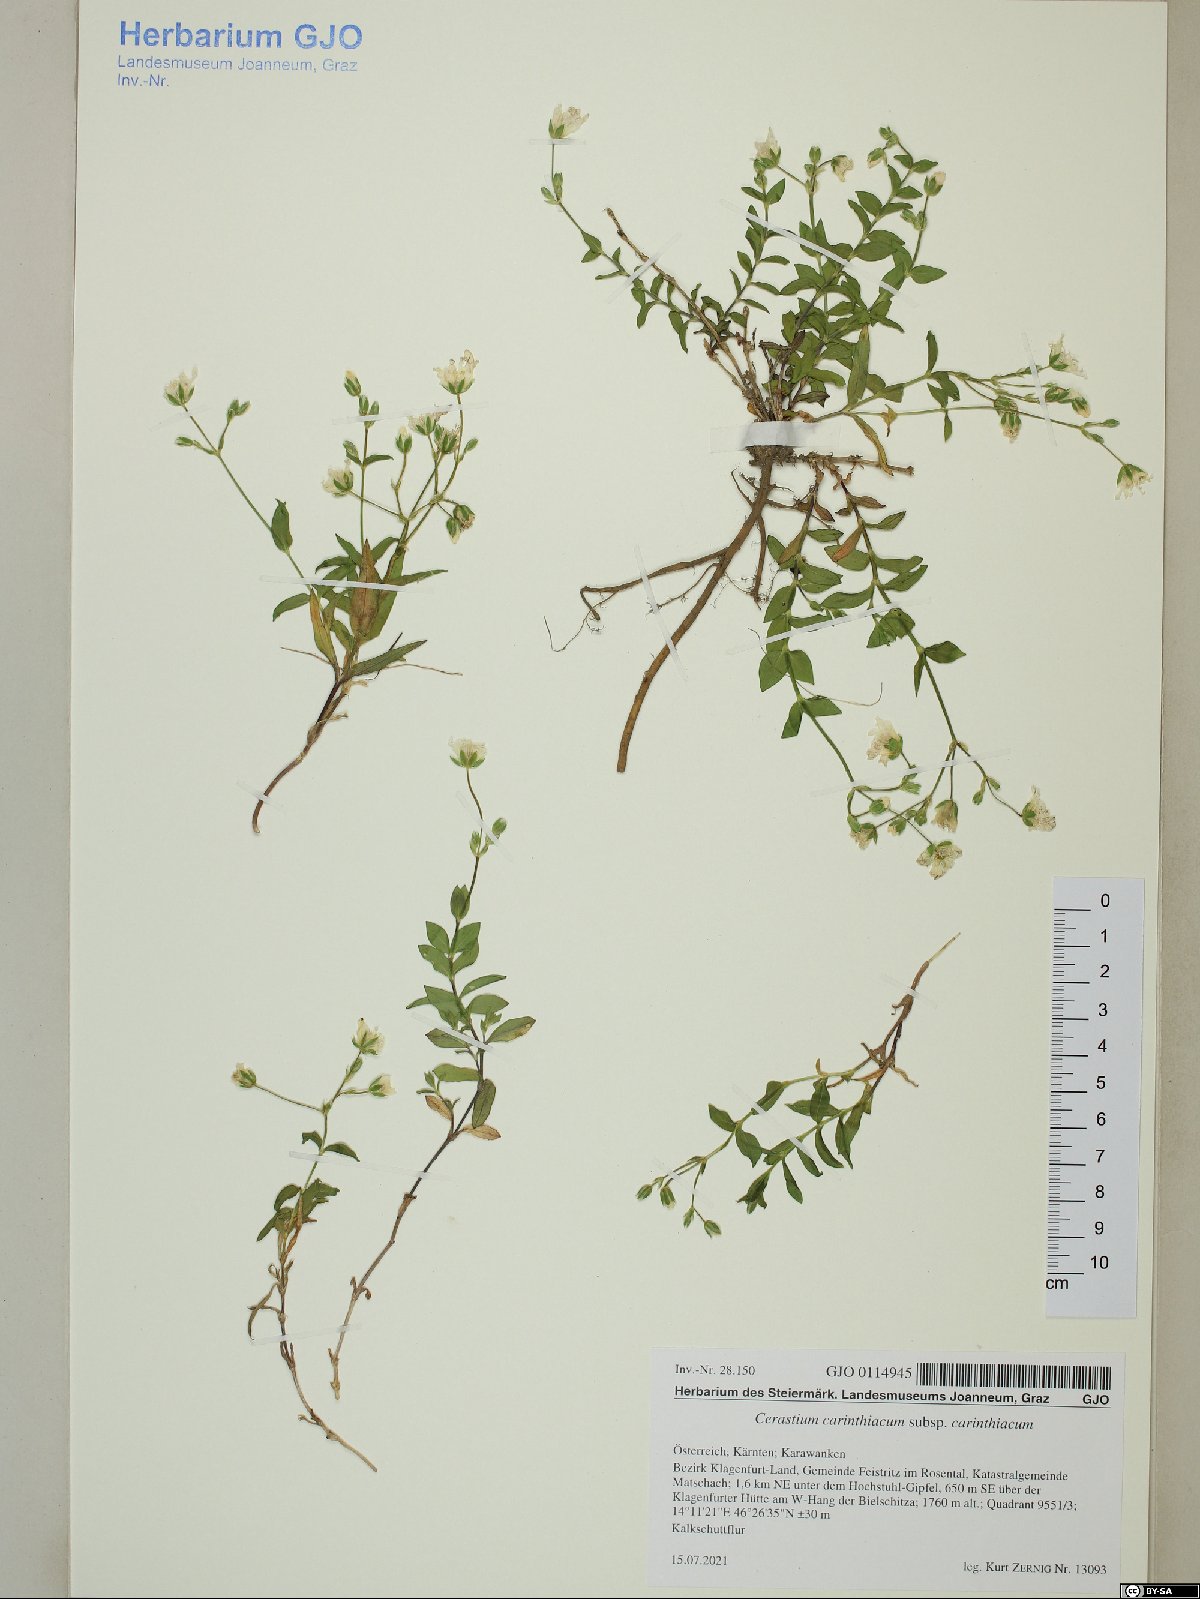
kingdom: Plantae
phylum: Tracheophyta
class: Magnoliopsida
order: Caryophyllales
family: Caryophyllaceae
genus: Cerastium
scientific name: Cerastium carinthiacum
